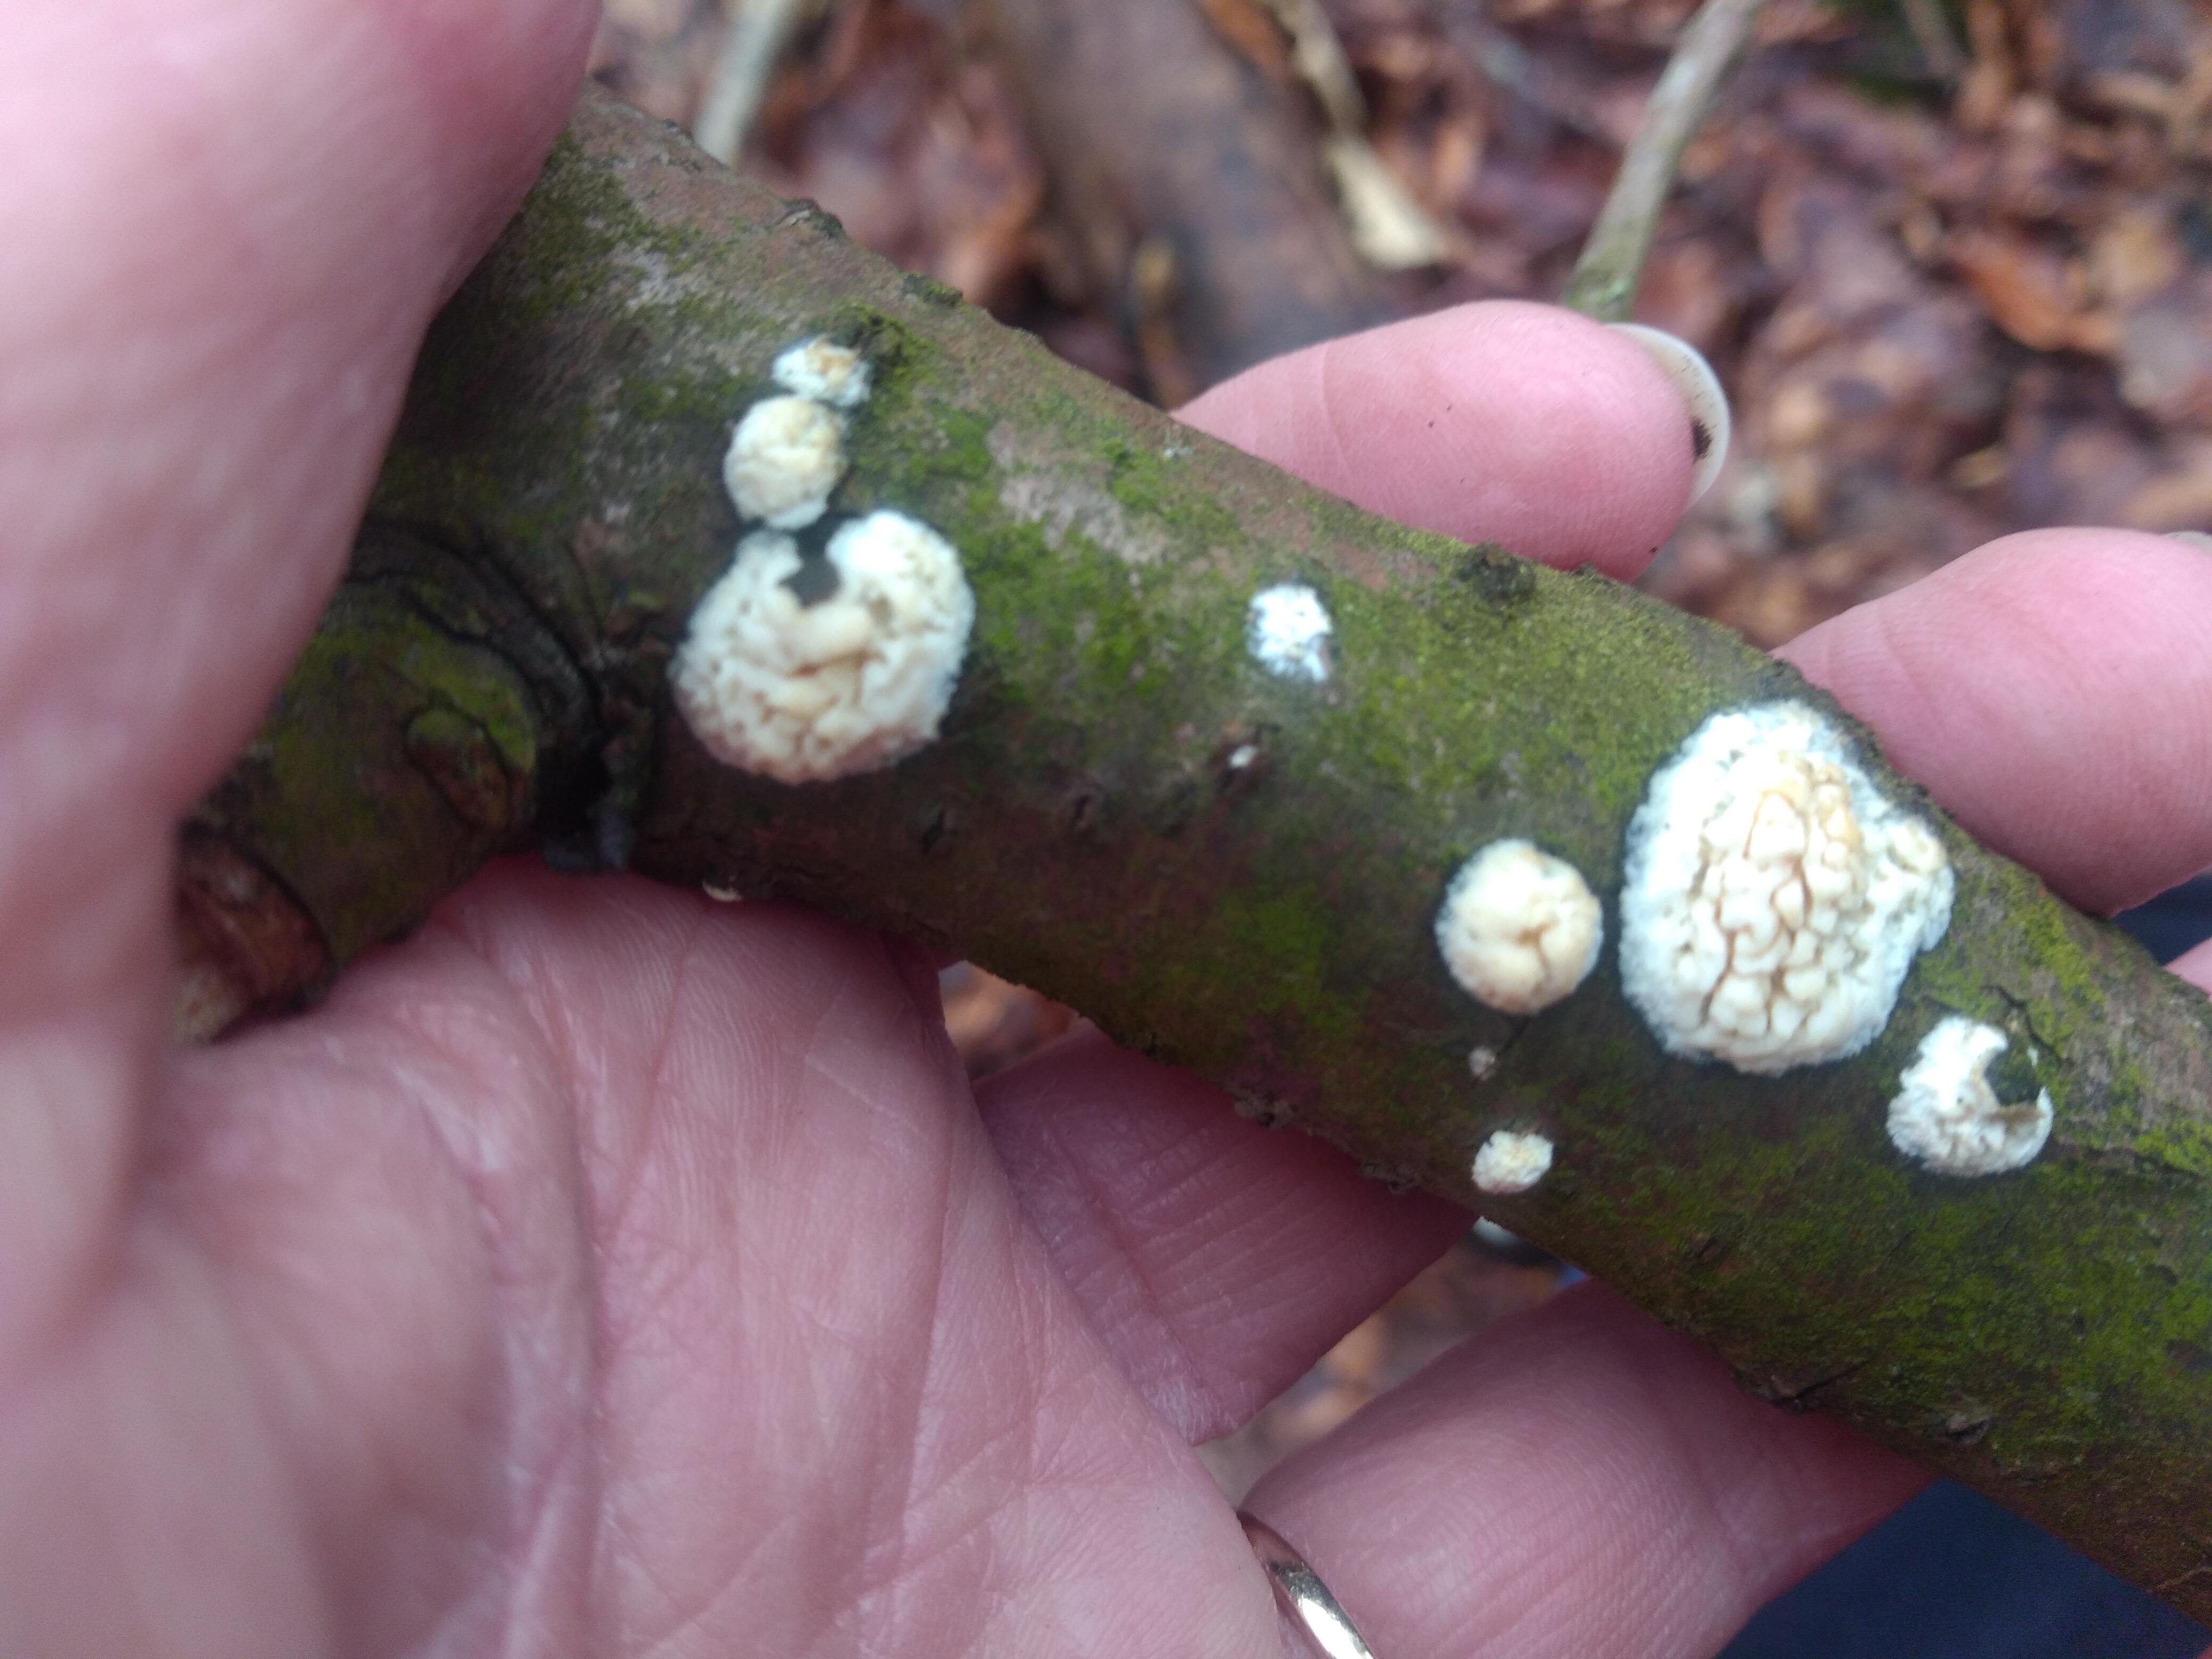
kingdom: Fungi
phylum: Basidiomycota
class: Agaricomycetes
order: Hymenochaetales
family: Schizoporaceae
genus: Xylodon
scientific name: Xylodon radula
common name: grovtandet kalkskind
